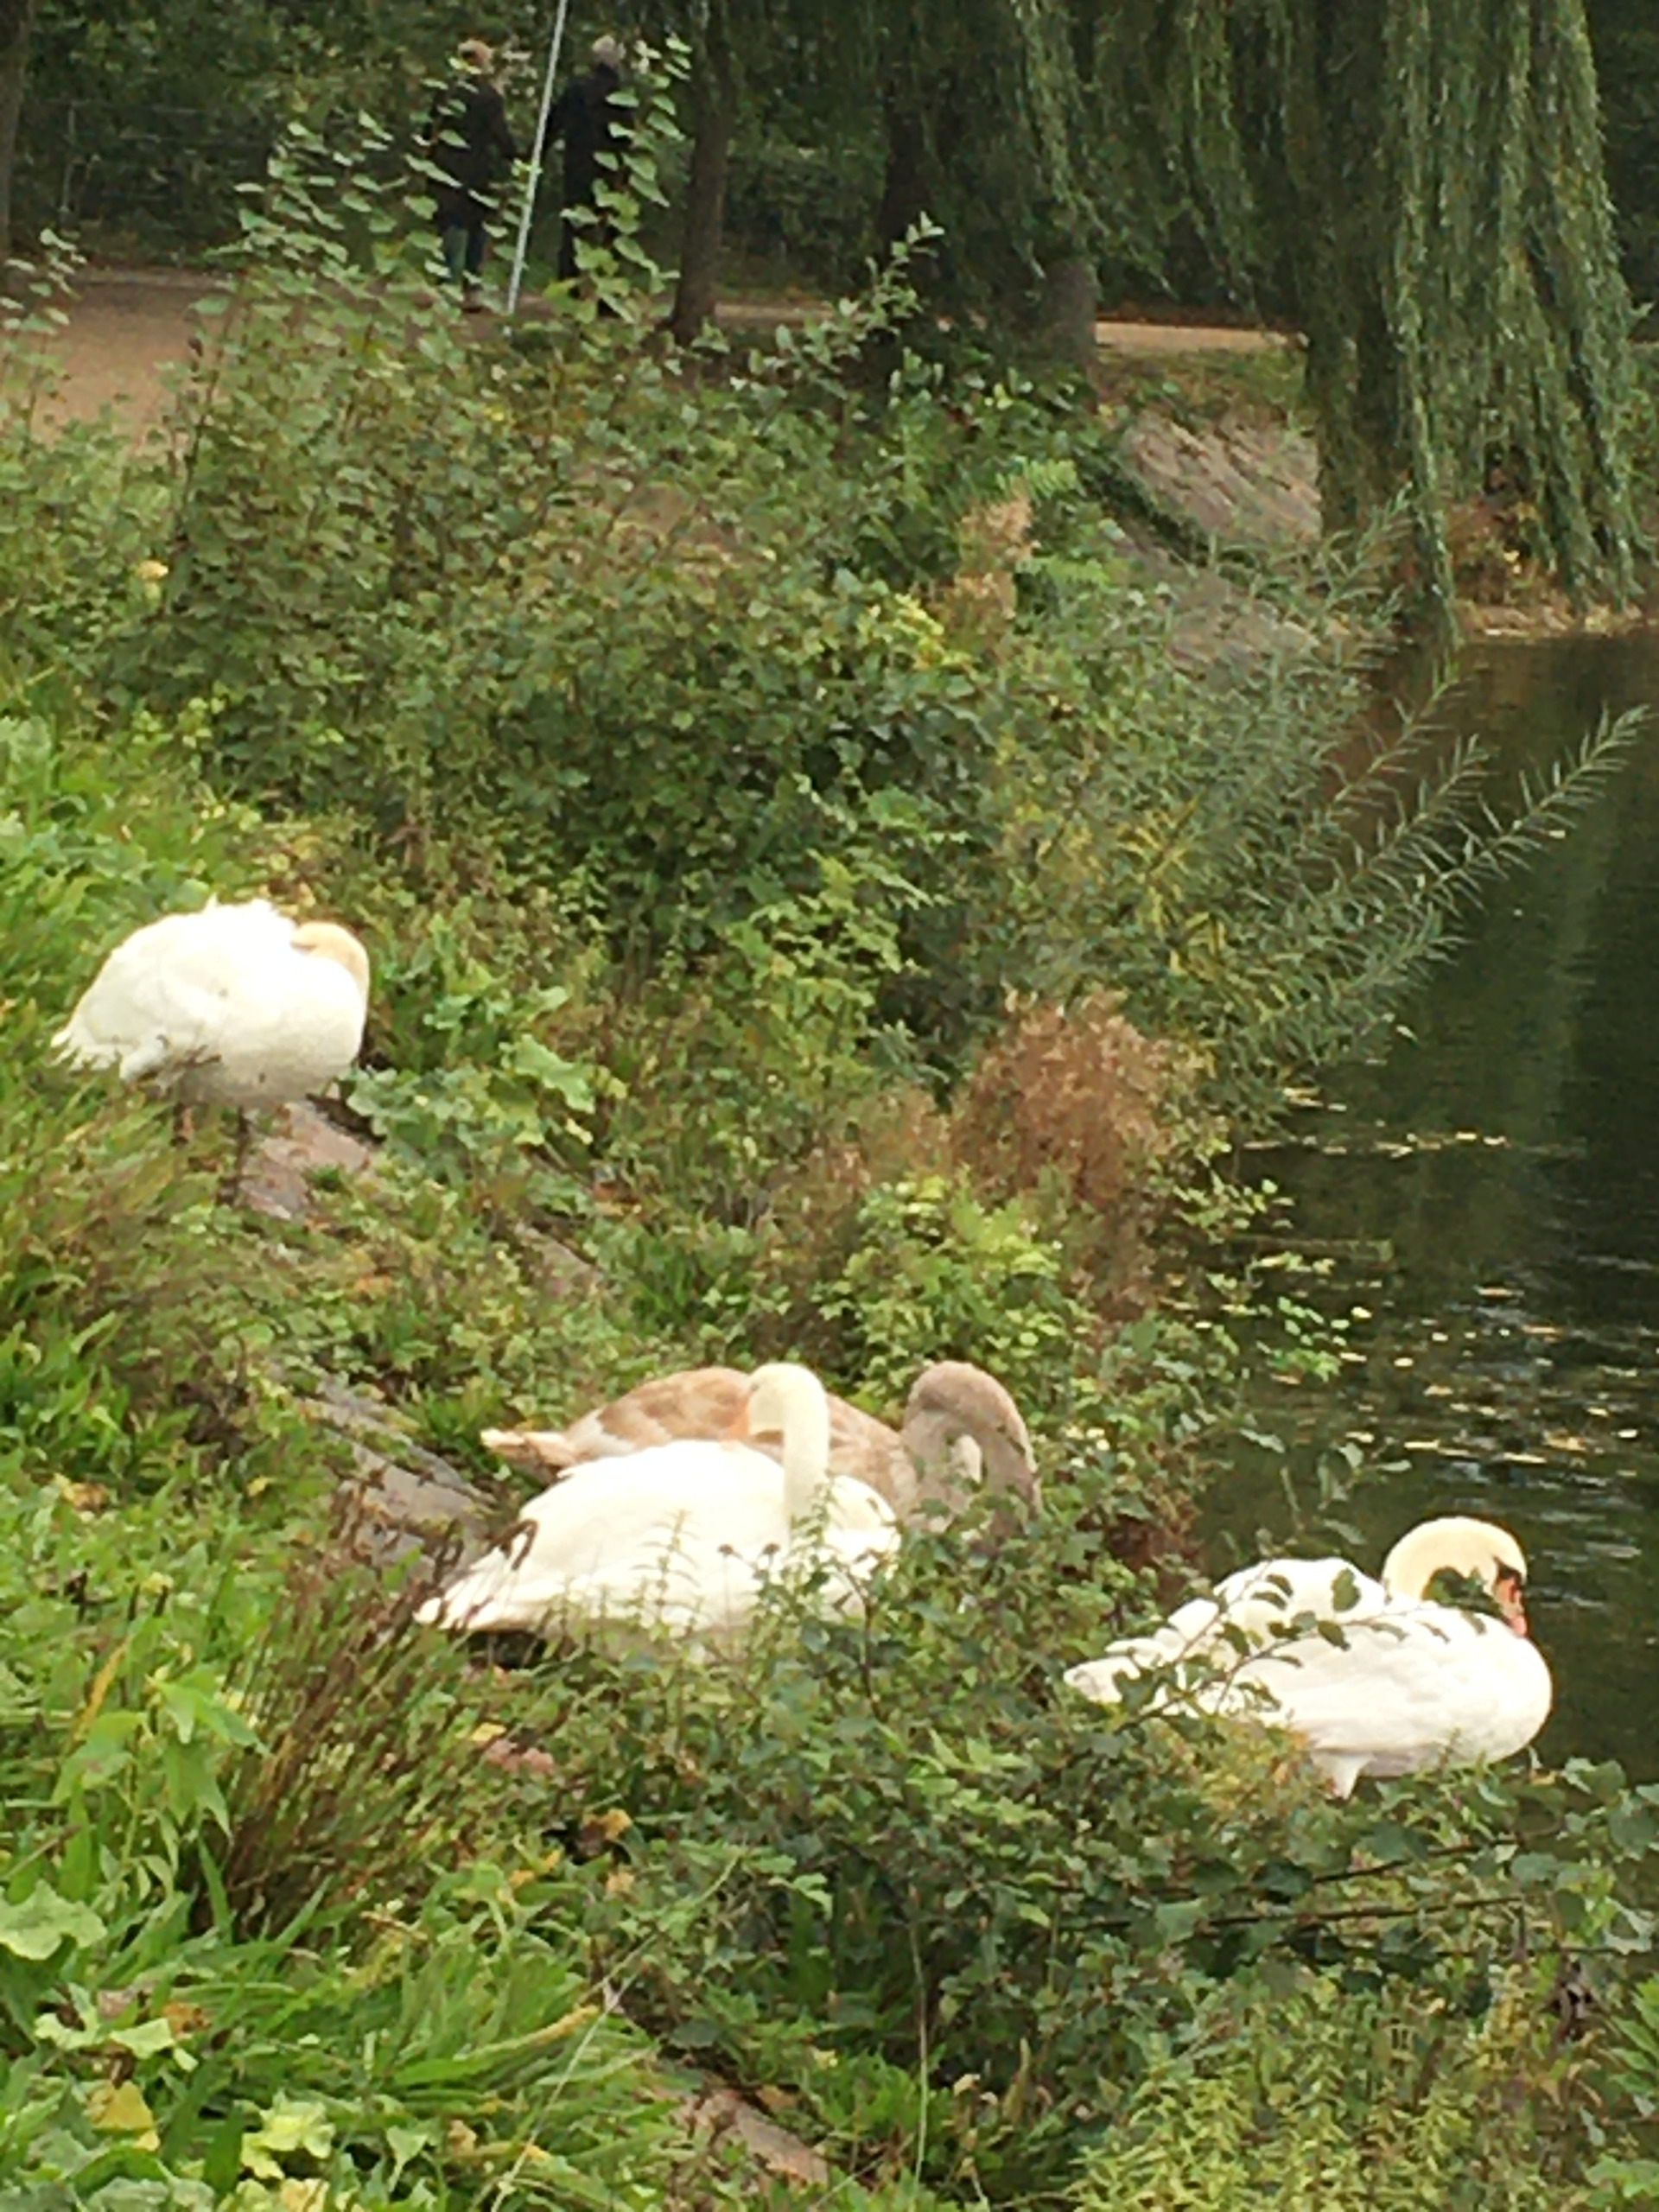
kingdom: Animalia
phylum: Chordata
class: Aves
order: Anseriformes
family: Anatidae
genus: Cygnus
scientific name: Cygnus olor
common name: Knopsvane
